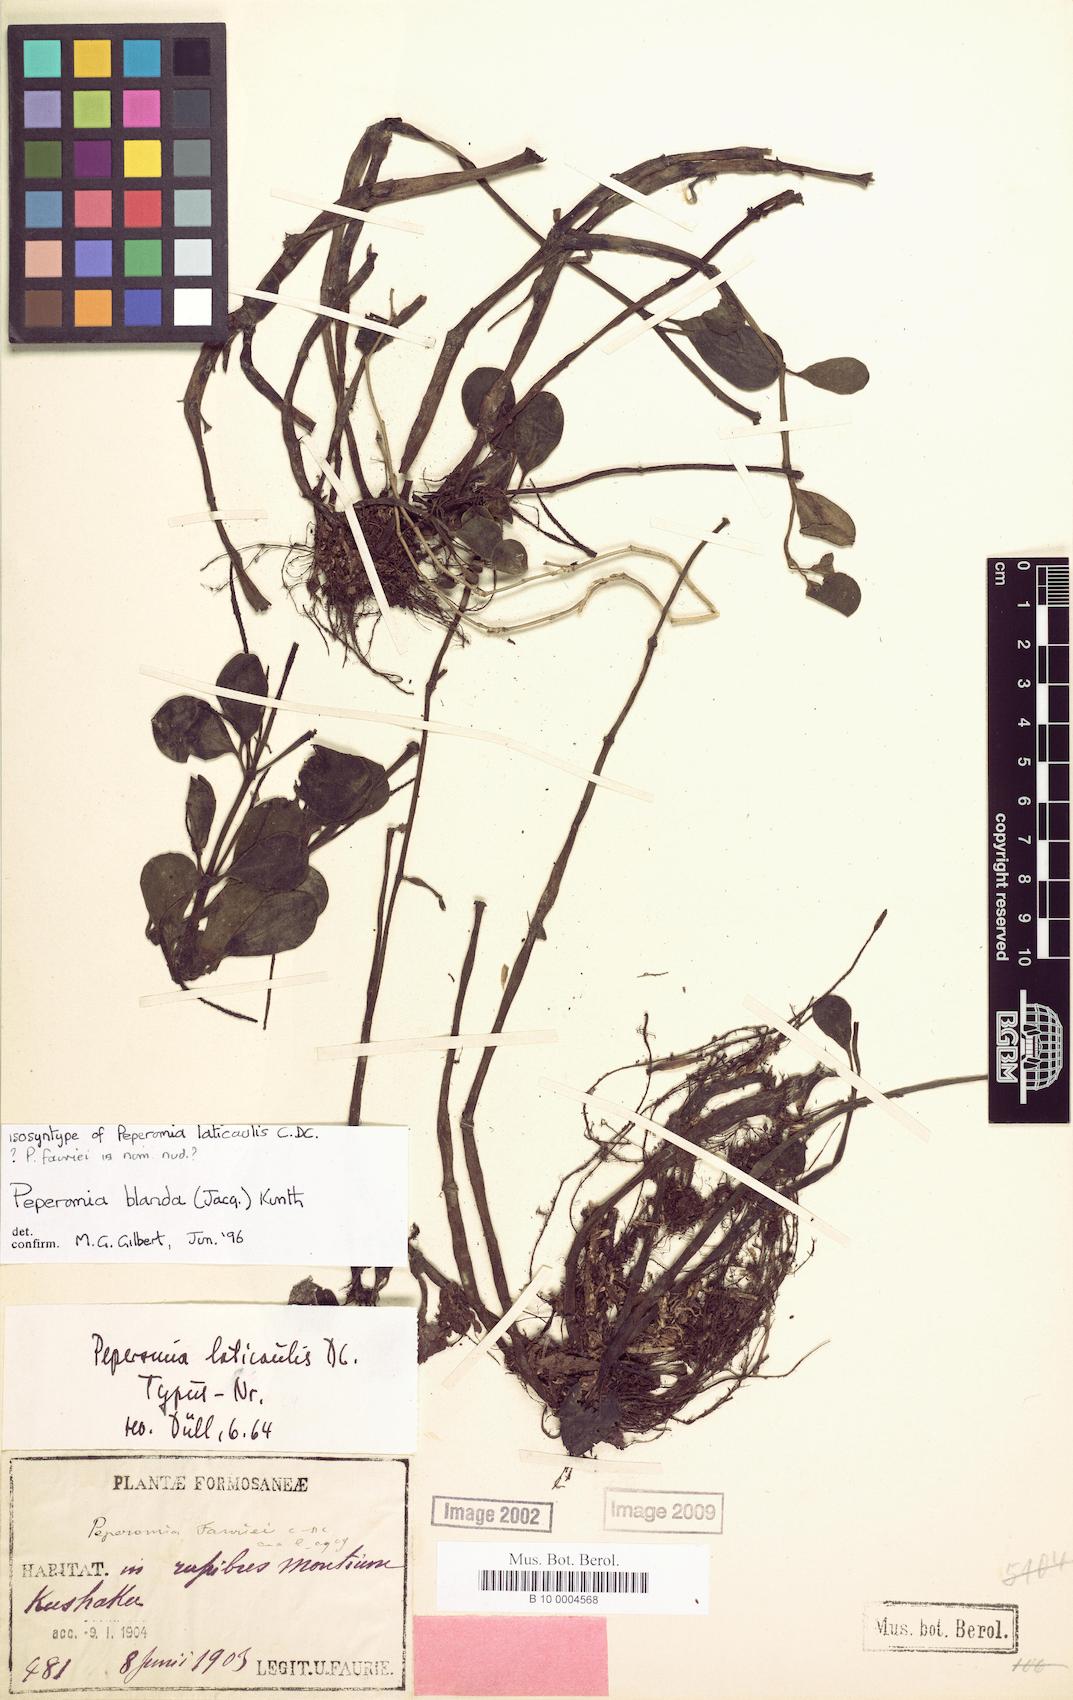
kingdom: Plantae
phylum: Tracheophyta
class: Magnoliopsida
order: Piperales
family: Piperaceae
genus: Peperomia
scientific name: Peperomia blanda
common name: Arid-land peperomia
